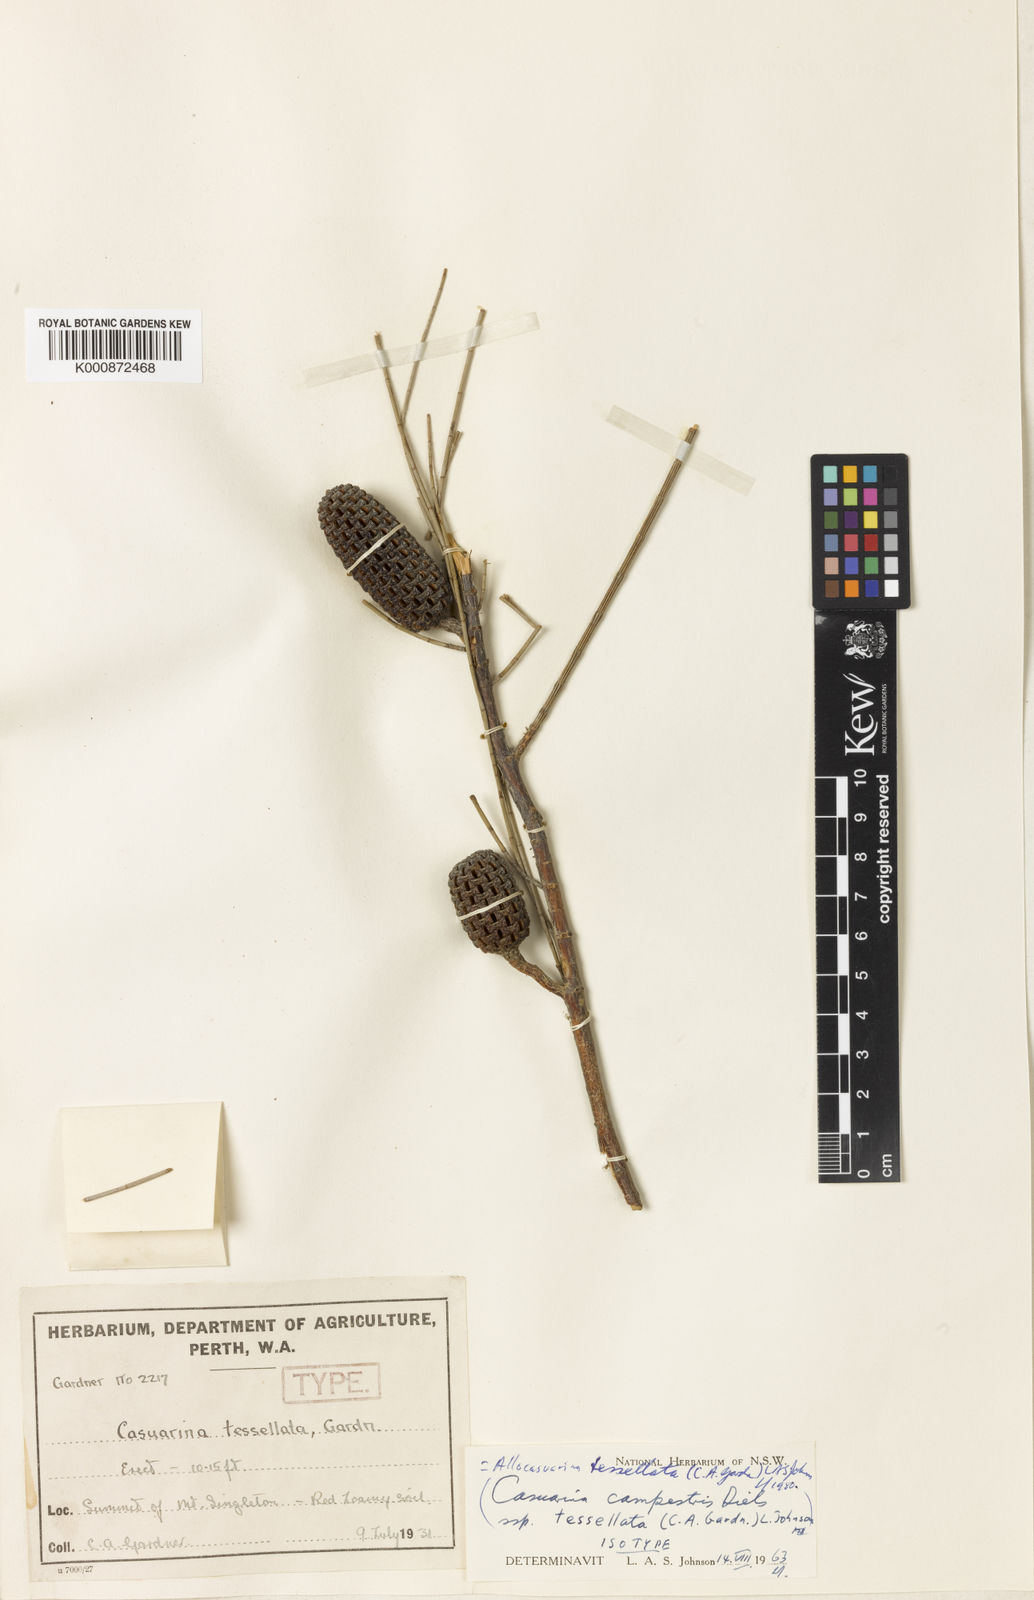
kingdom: Plantae
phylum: Tracheophyta
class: Magnoliopsida
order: Fagales
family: Casuarinaceae
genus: Allocasuarina
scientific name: Allocasuarina tessellata
